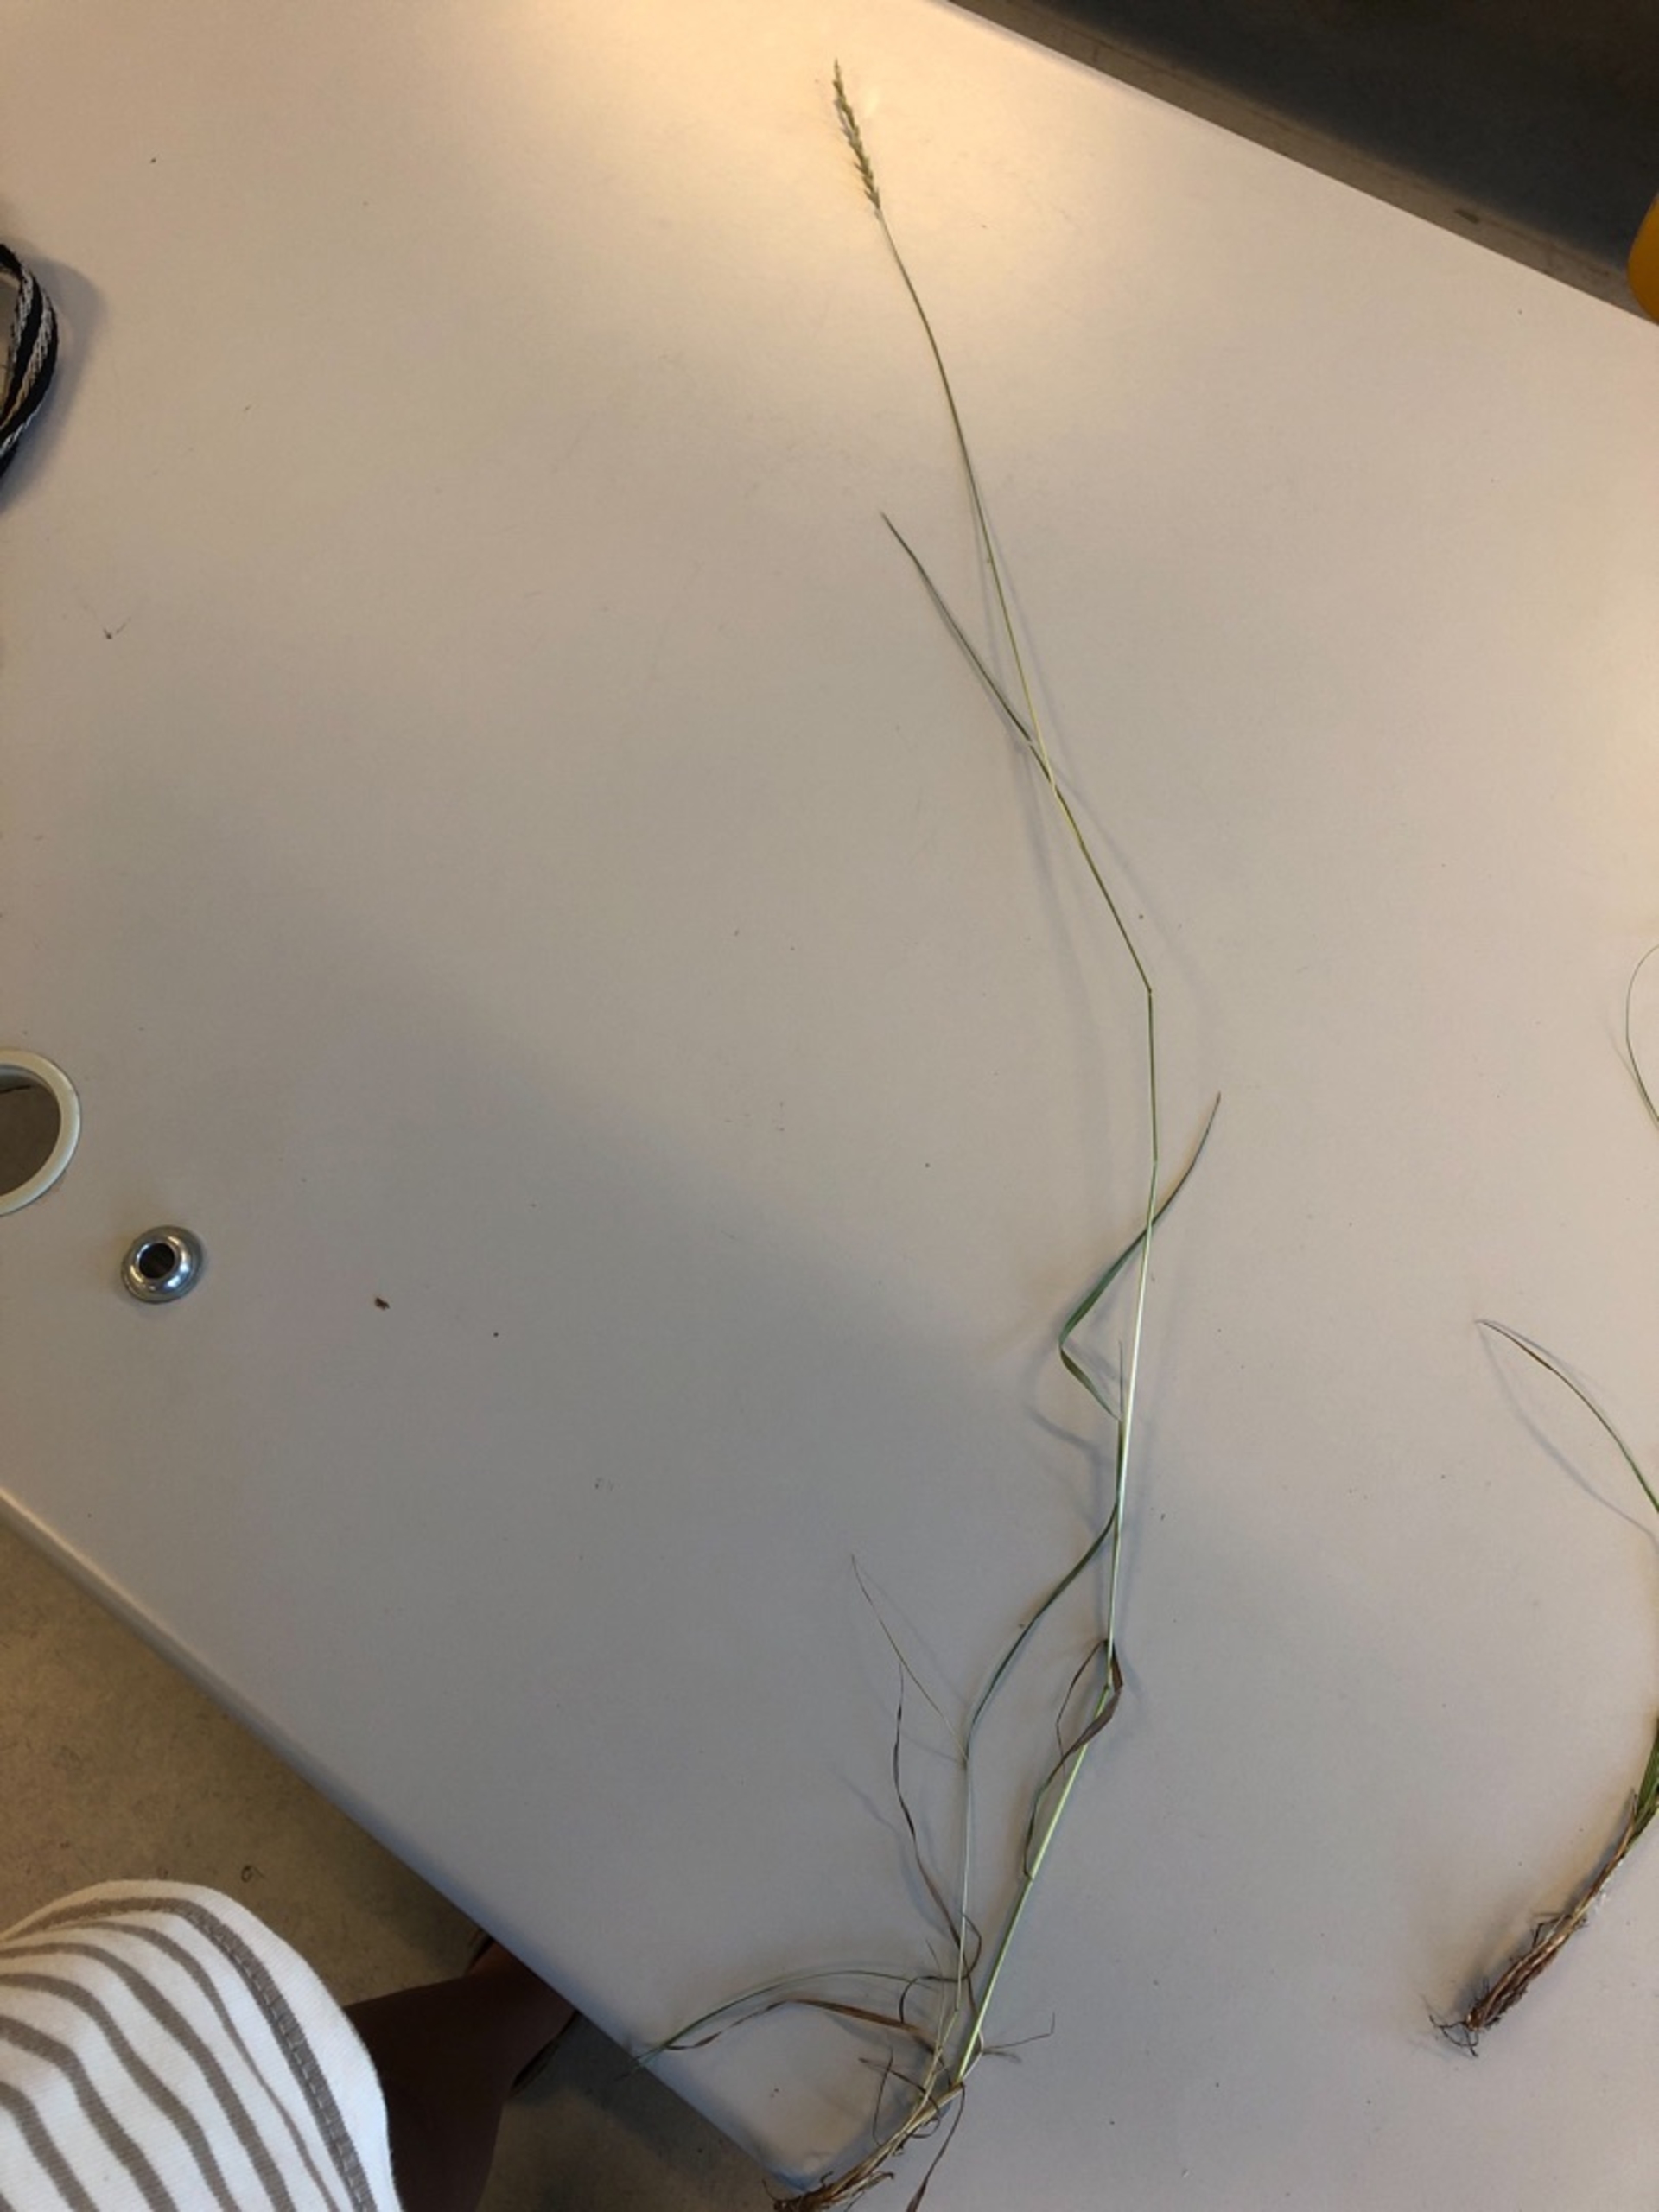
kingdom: Plantae
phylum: Tracheophyta
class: Liliopsida
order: Poales
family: Poaceae
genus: Elymus
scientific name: Elymus repens
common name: Almindelig kvik
